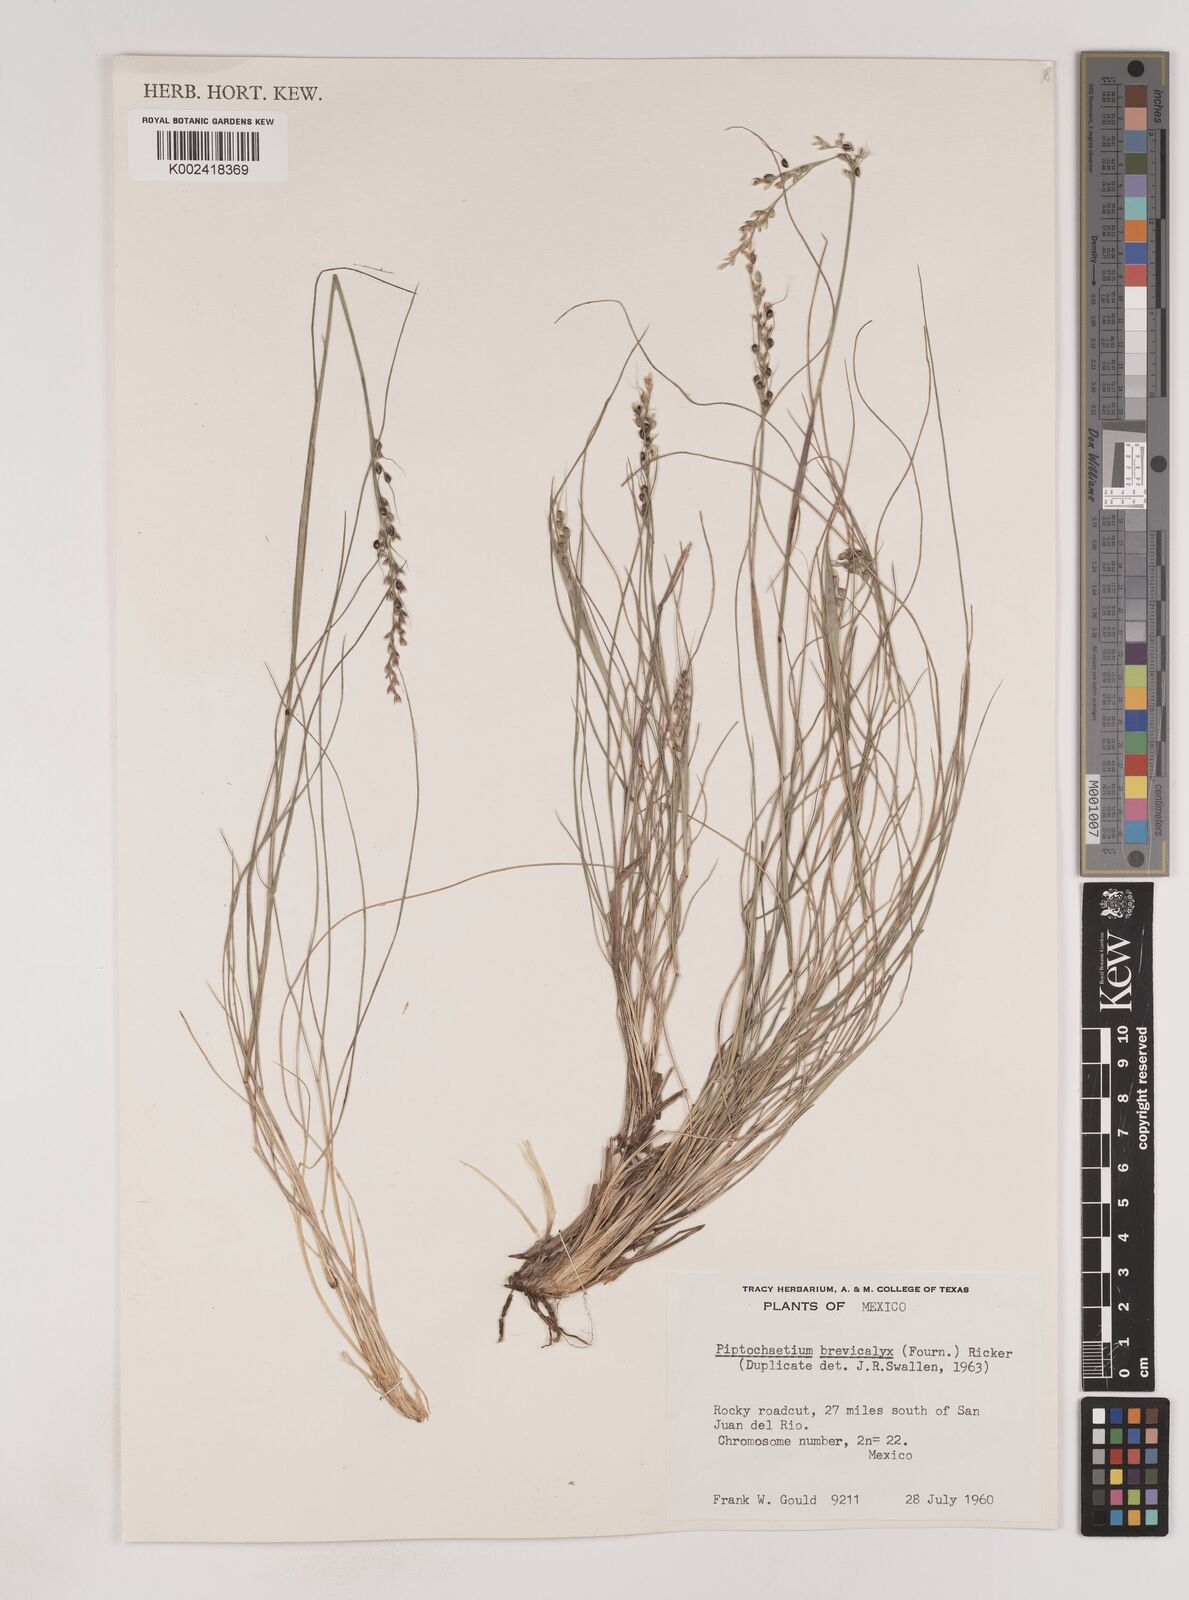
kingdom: Plantae
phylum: Tracheophyta
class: Liliopsida
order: Poales
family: Poaceae
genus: Piptochaetium
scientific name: Piptochaetium brevicalyx
